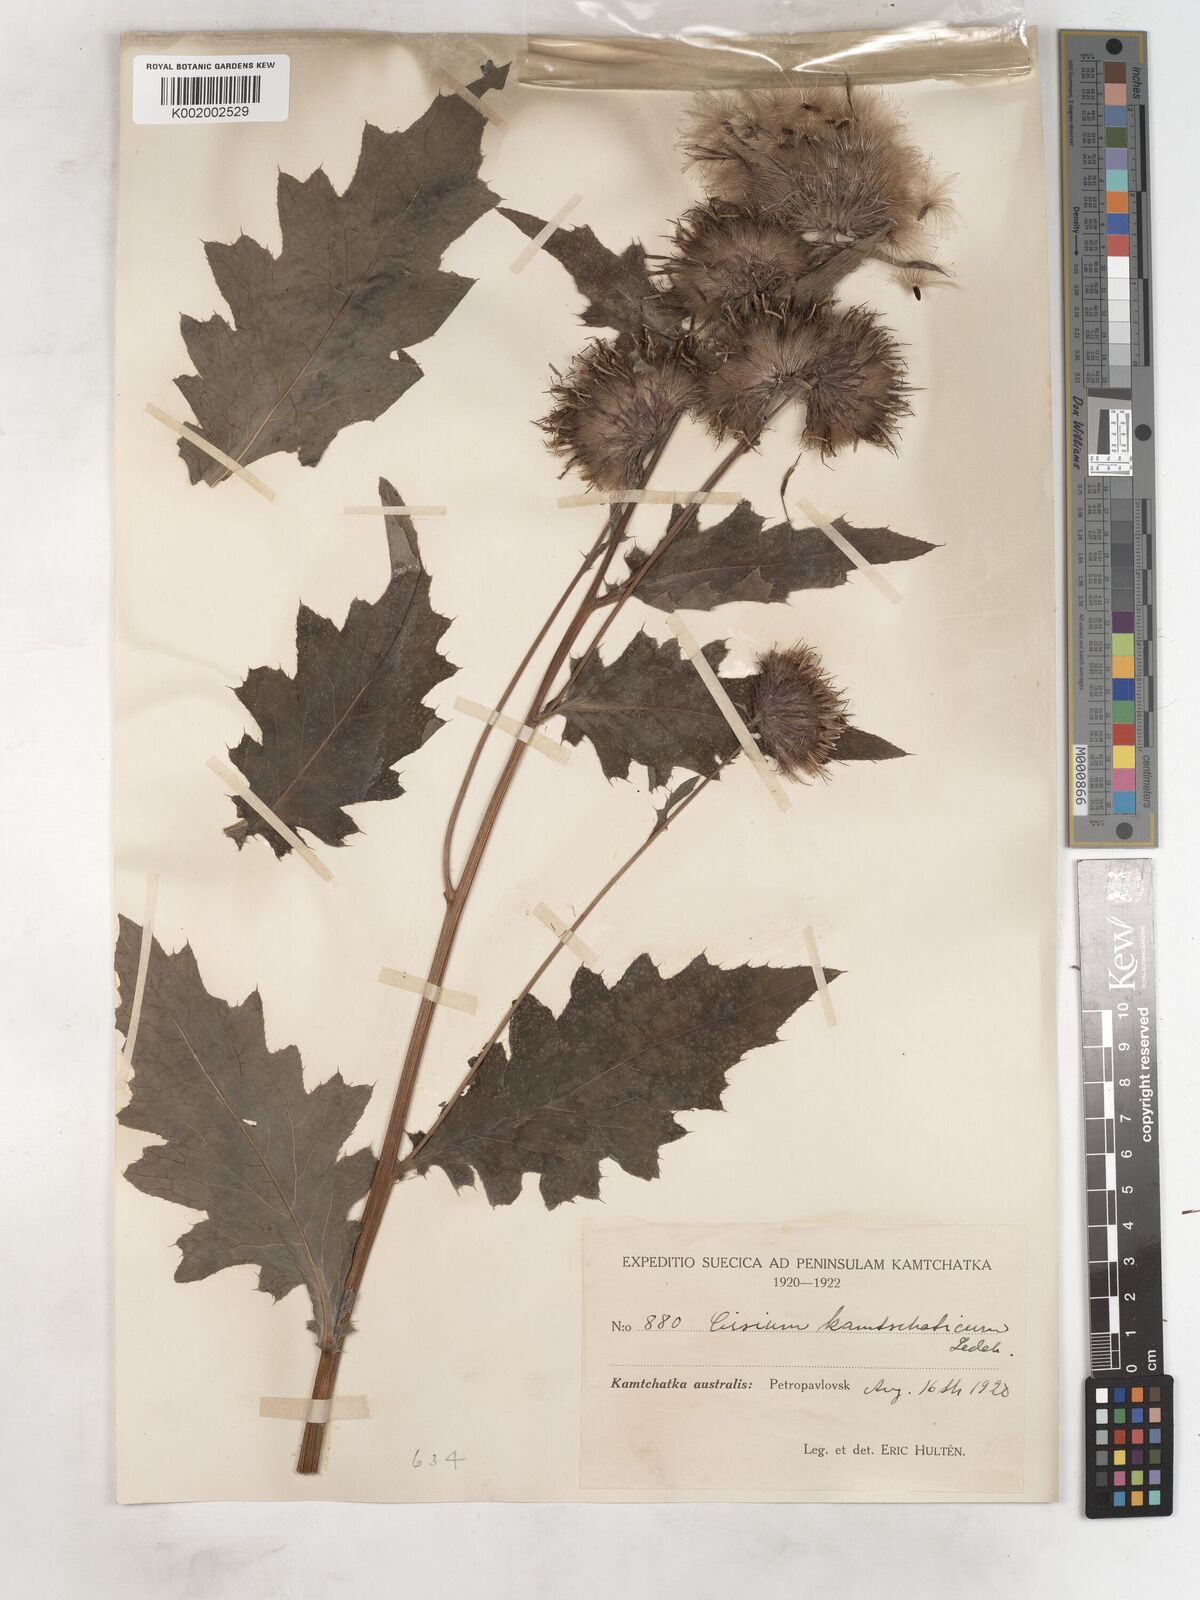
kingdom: Plantae
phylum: Tracheophyta
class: Magnoliopsida
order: Asterales
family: Asteraceae
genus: Cirsium
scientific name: Cirsium kamtschaticum
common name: Kamchatka thistle
